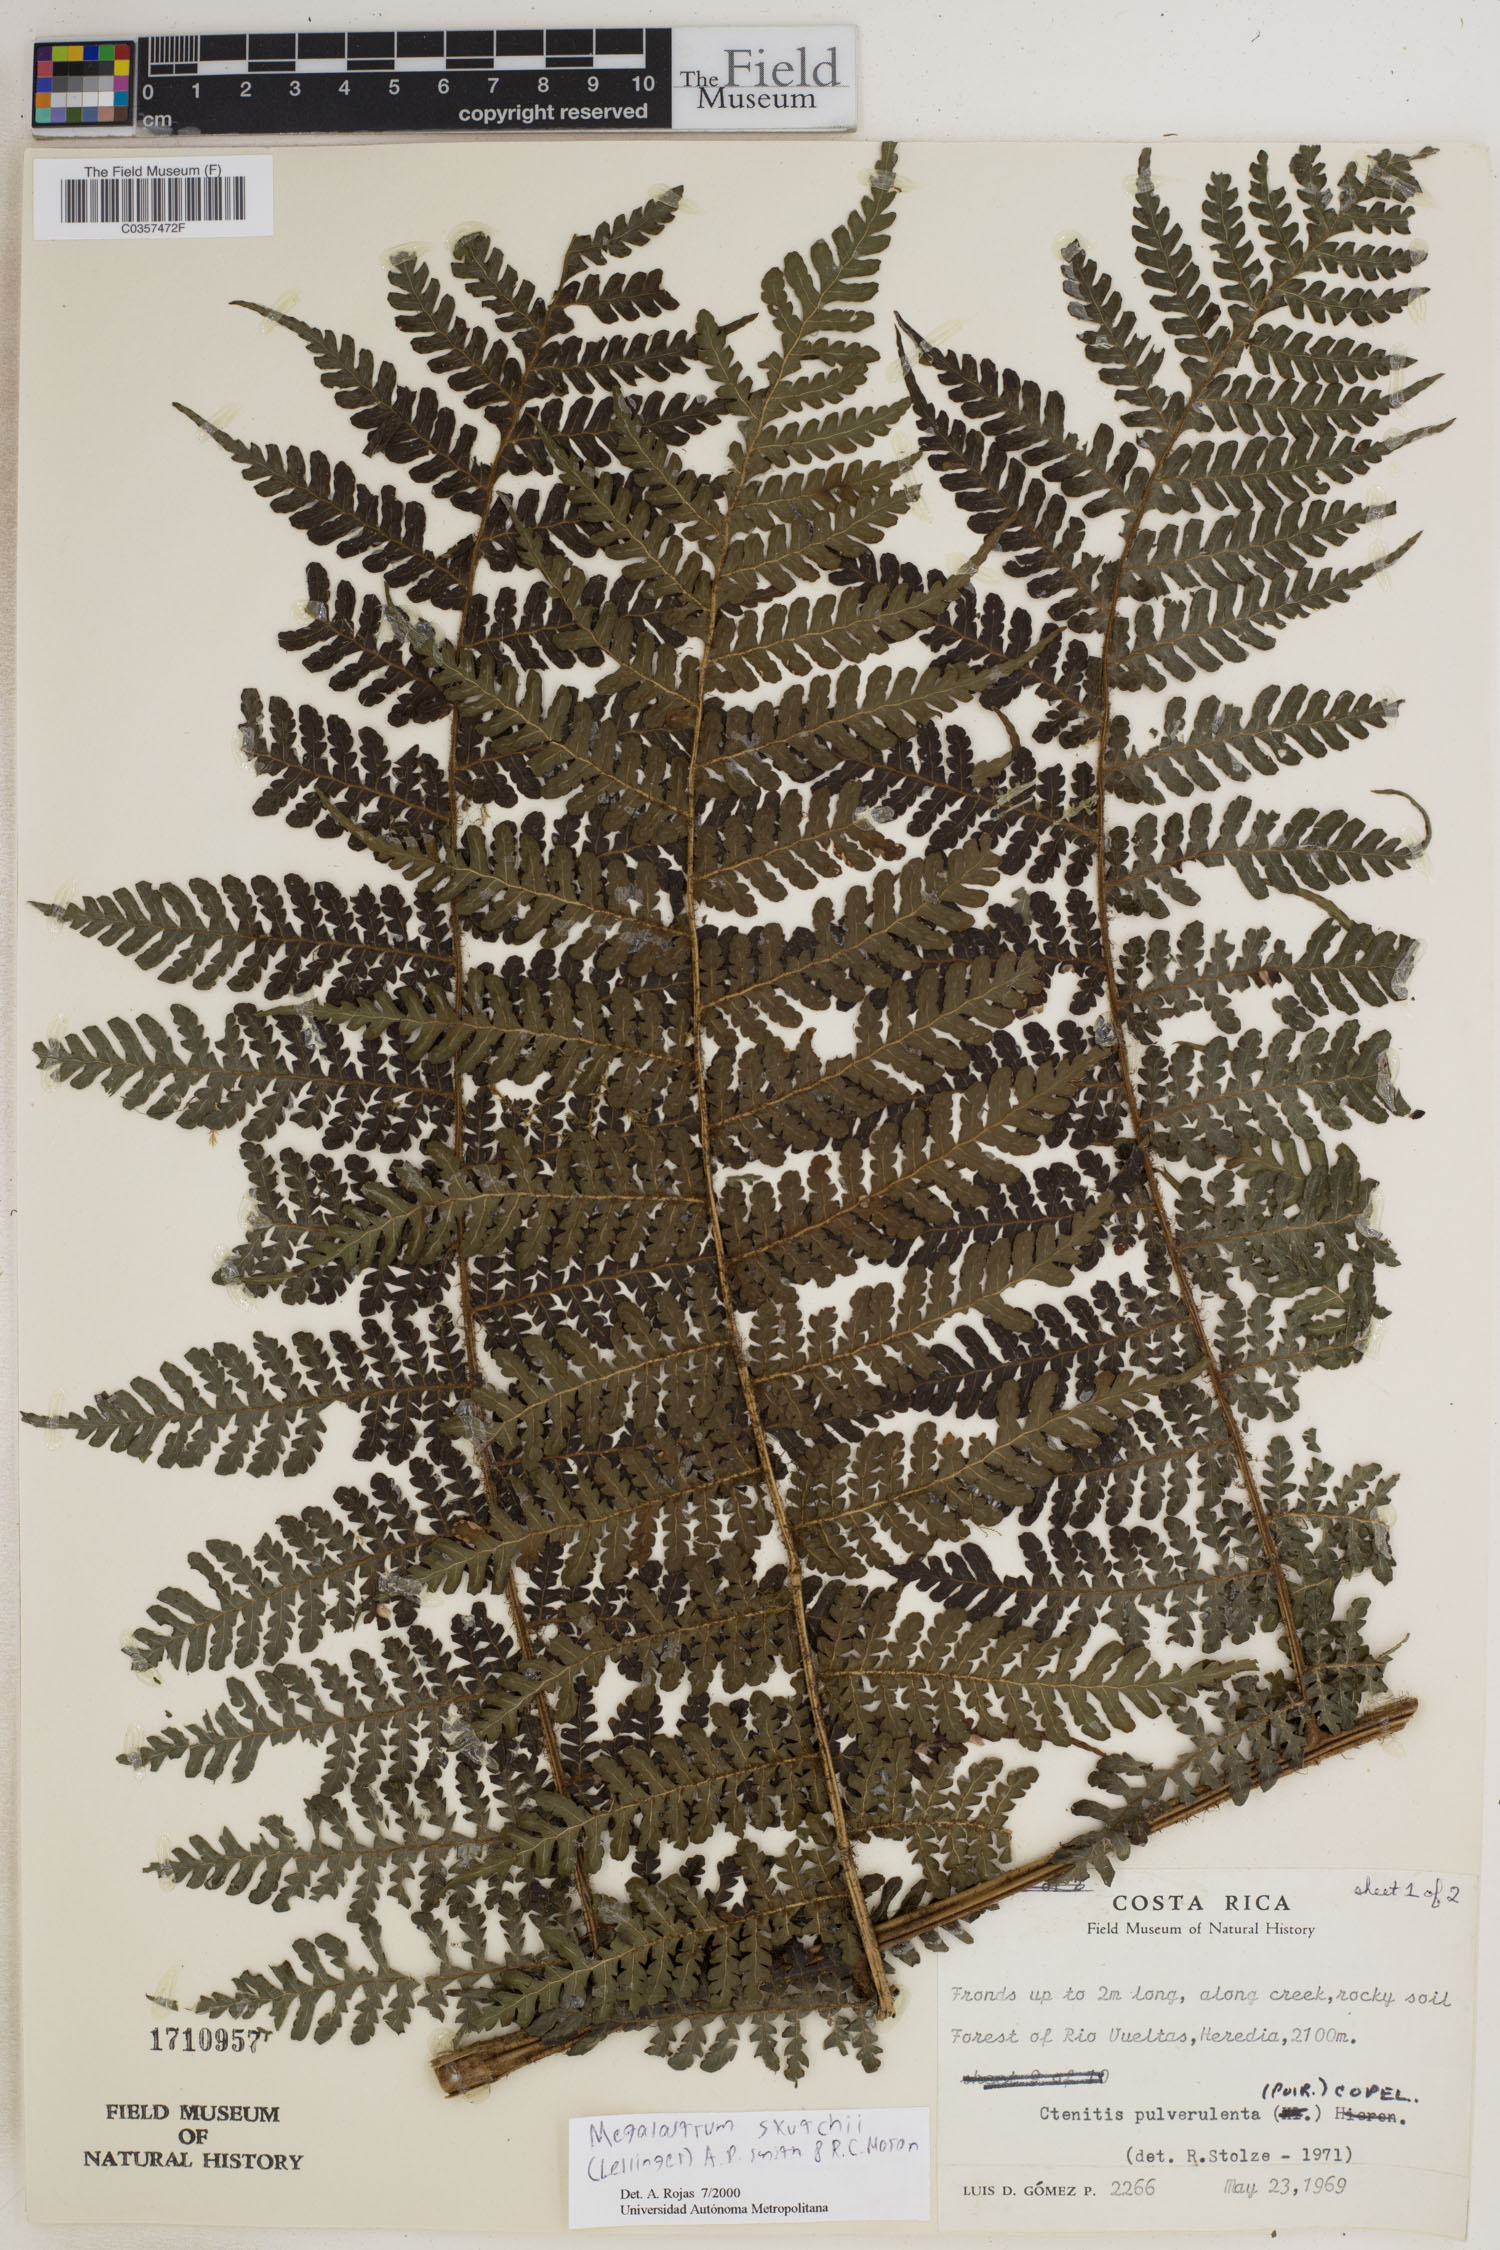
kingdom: Plantae
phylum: Tracheophyta
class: Polypodiopsida
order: Polypodiales
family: Dryopteridaceae
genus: Megalastrum
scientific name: Megalastrum skutchii
